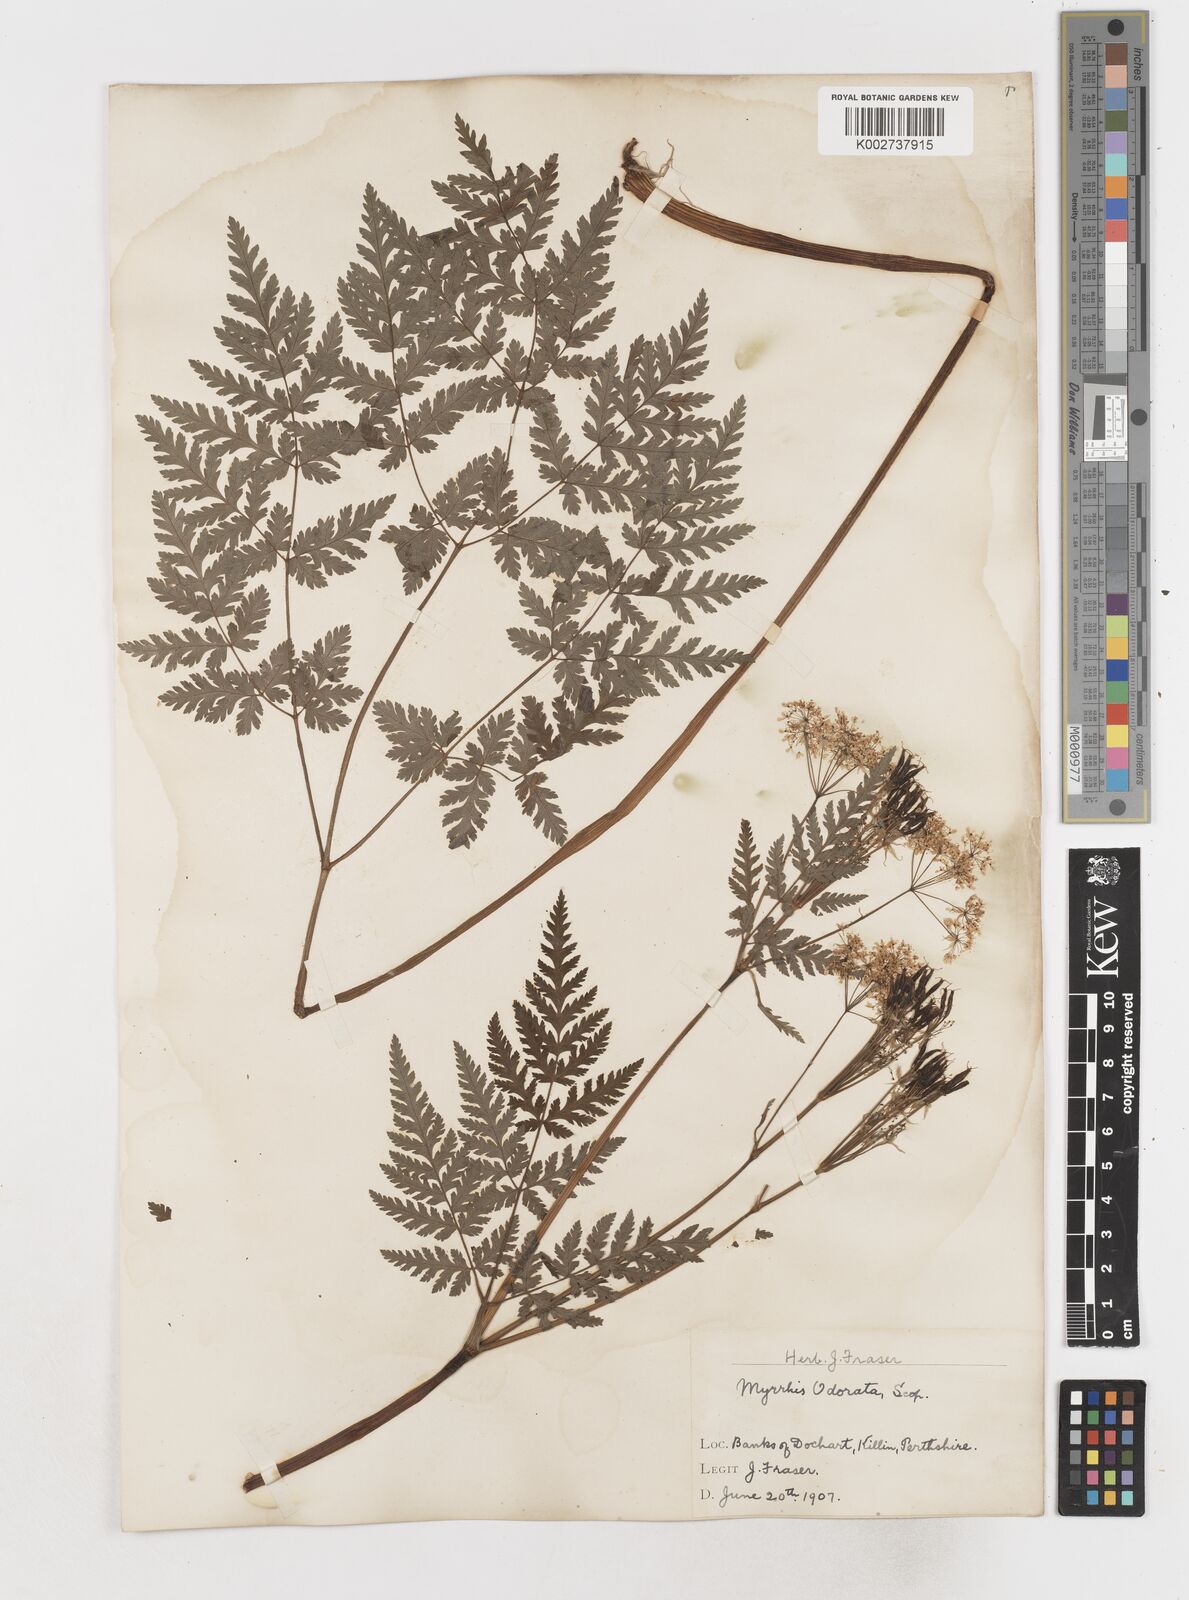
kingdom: Plantae
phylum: Tracheophyta
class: Magnoliopsida
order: Apiales
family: Apiaceae
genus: Myrrhis
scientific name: Myrrhis odorata
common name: Sweet cicely
